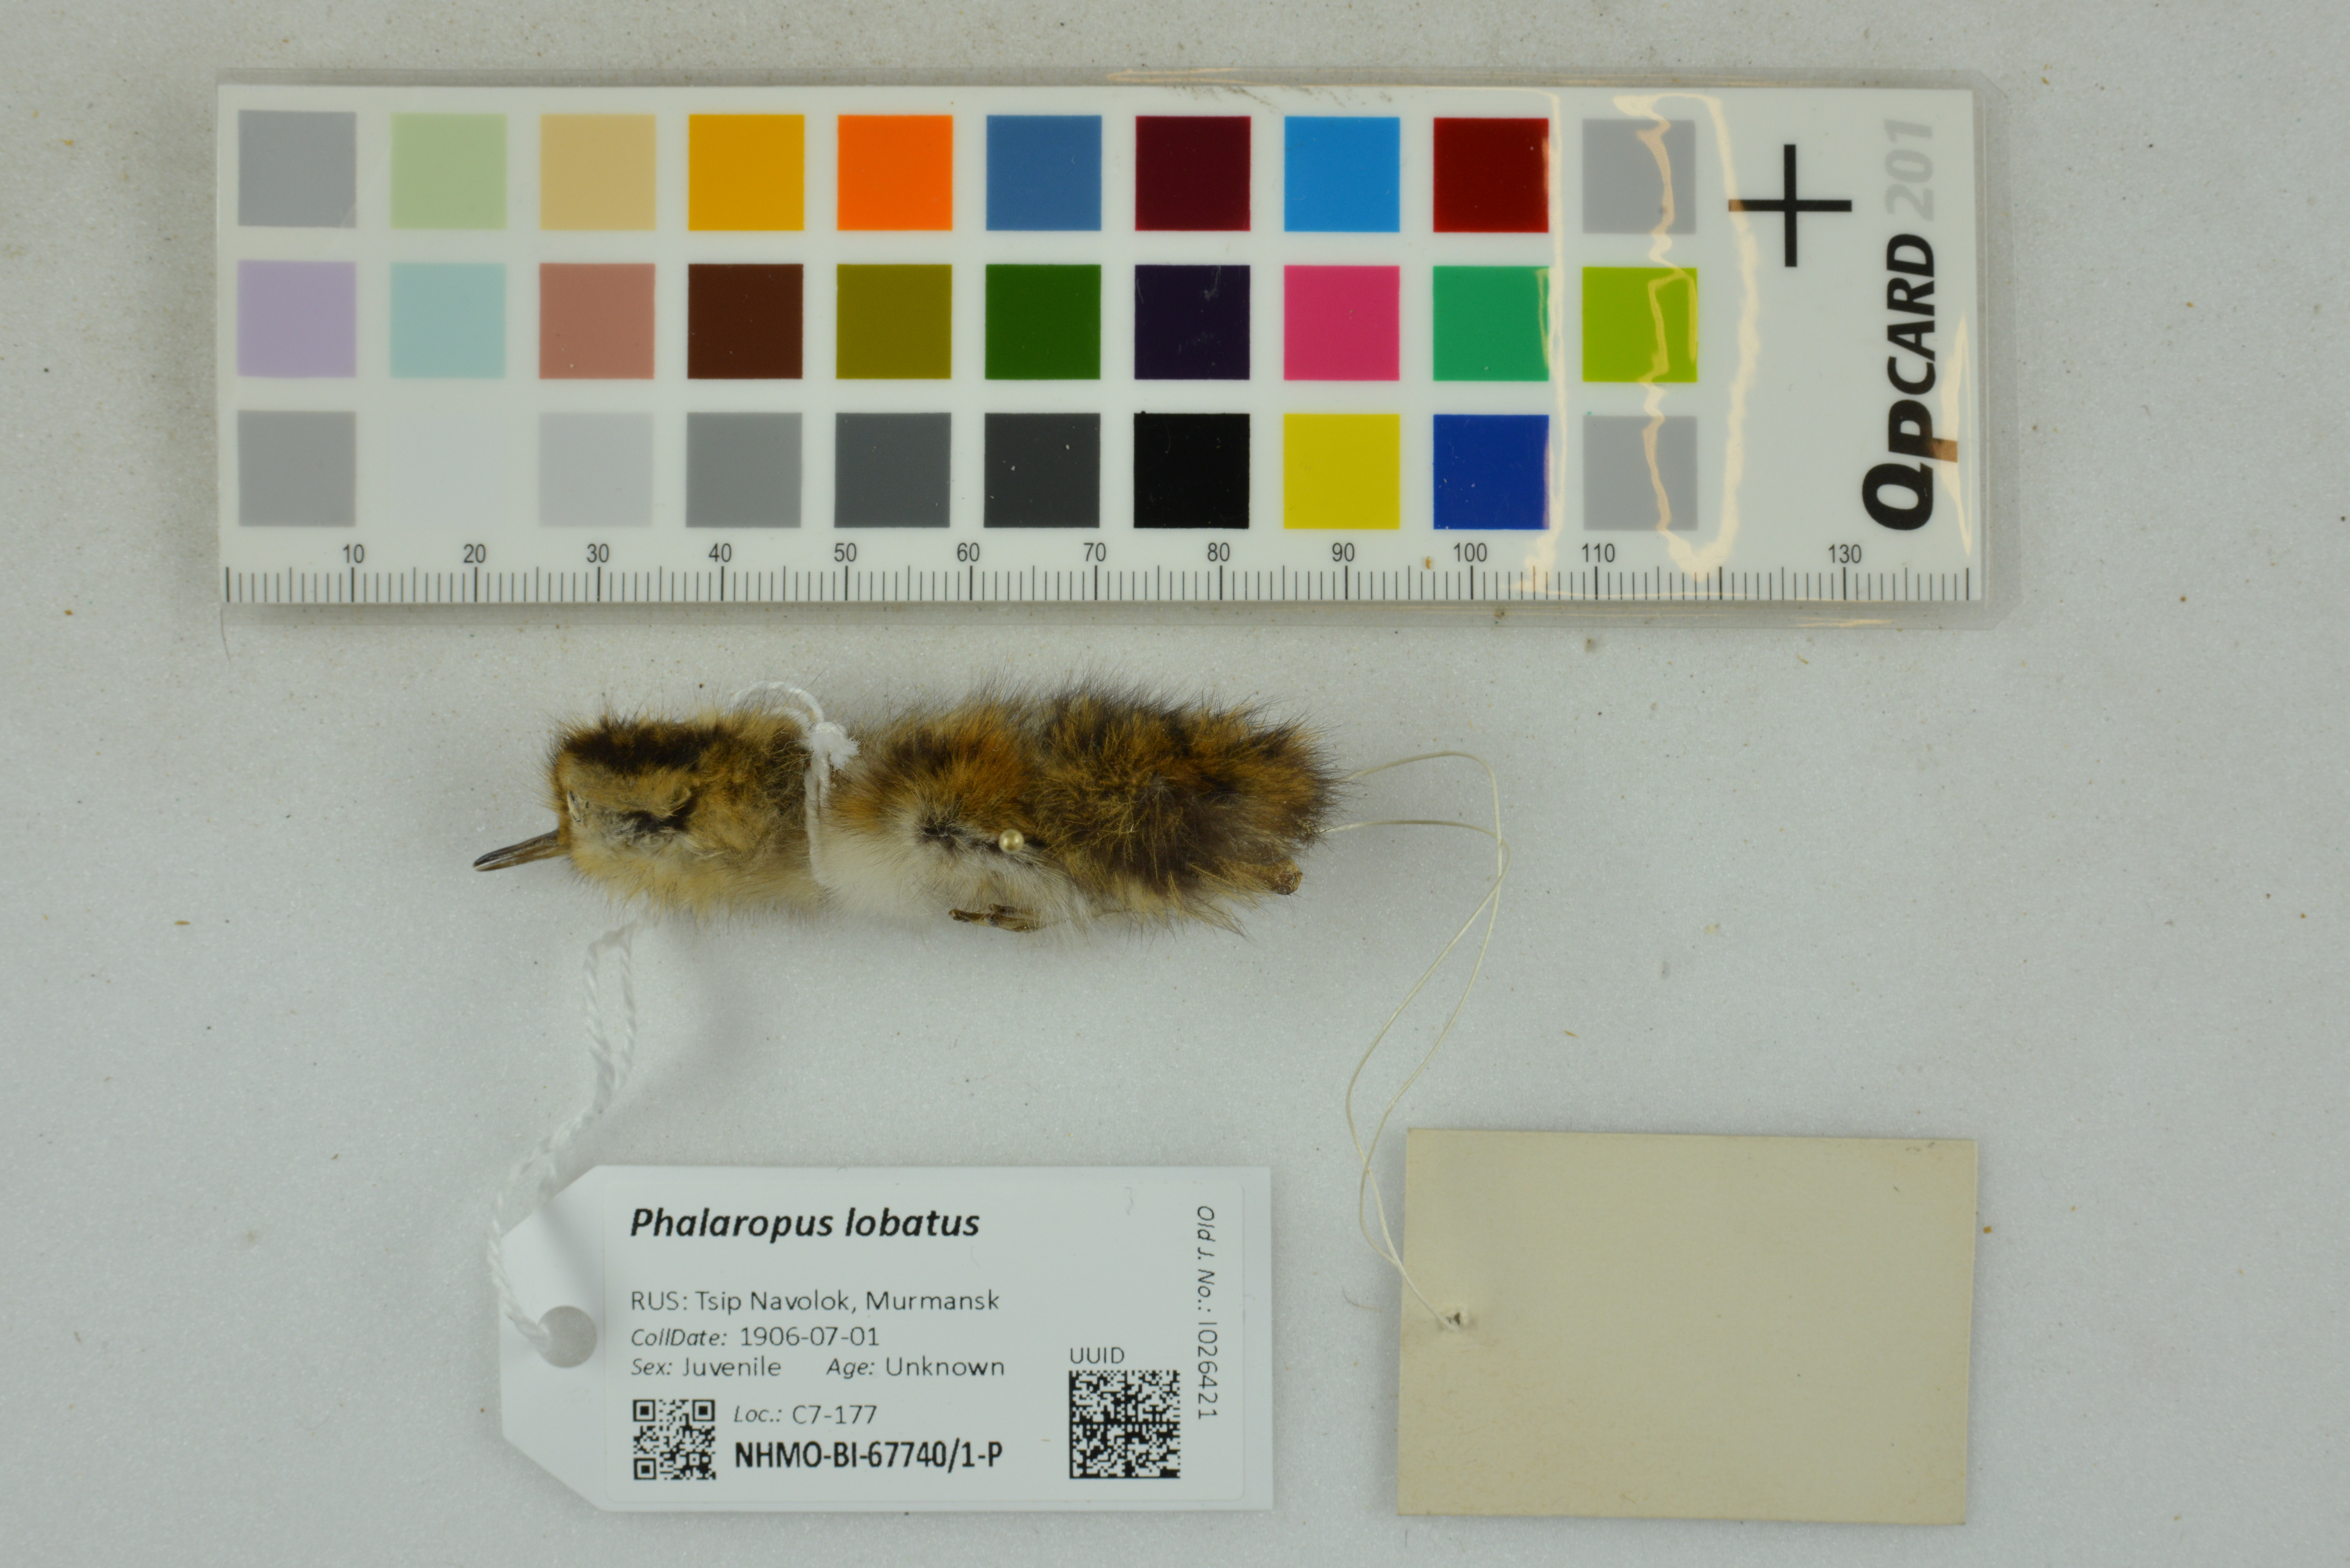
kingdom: Animalia
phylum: Chordata
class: Aves
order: Charadriiformes
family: Scolopacidae
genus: Phalaropus
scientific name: Phalaropus lobatus
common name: Red-necked phalarope
